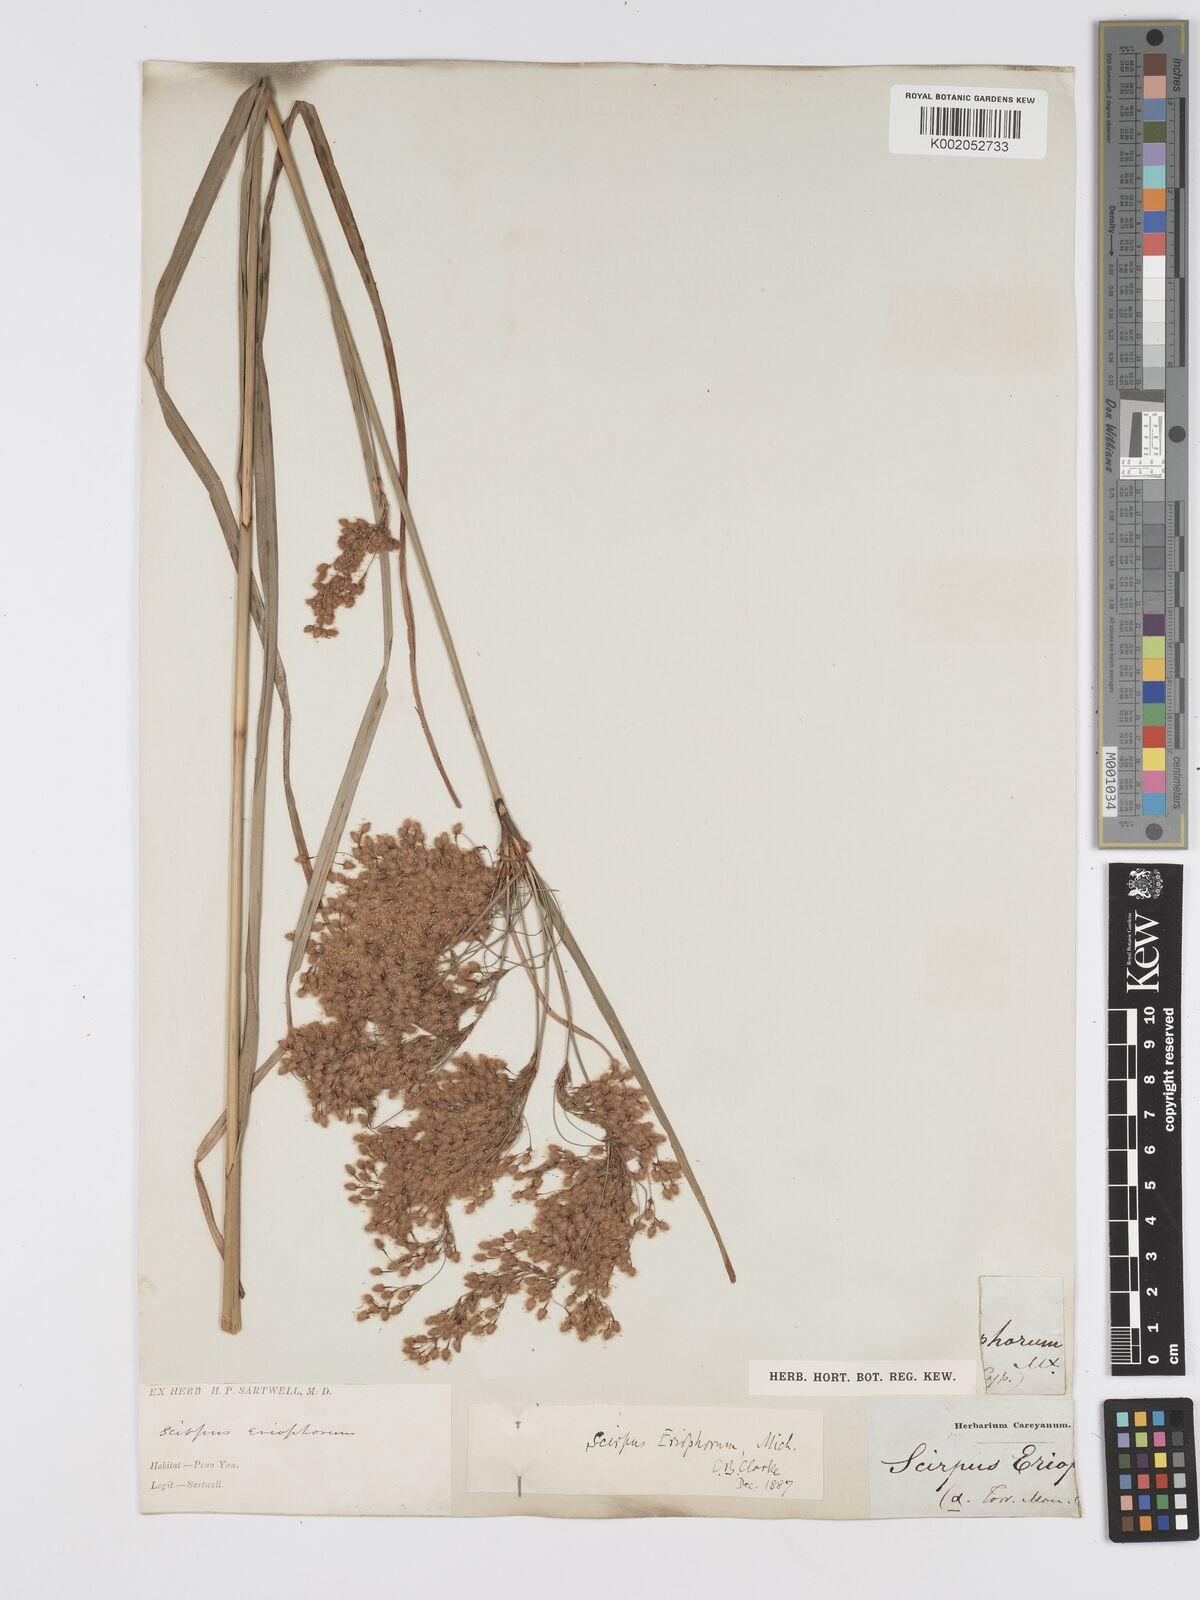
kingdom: Plantae
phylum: Tracheophyta
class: Liliopsida
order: Poales
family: Cyperaceae
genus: Scirpus
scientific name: Scirpus cyperinus
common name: Black-sheathed bulrush
